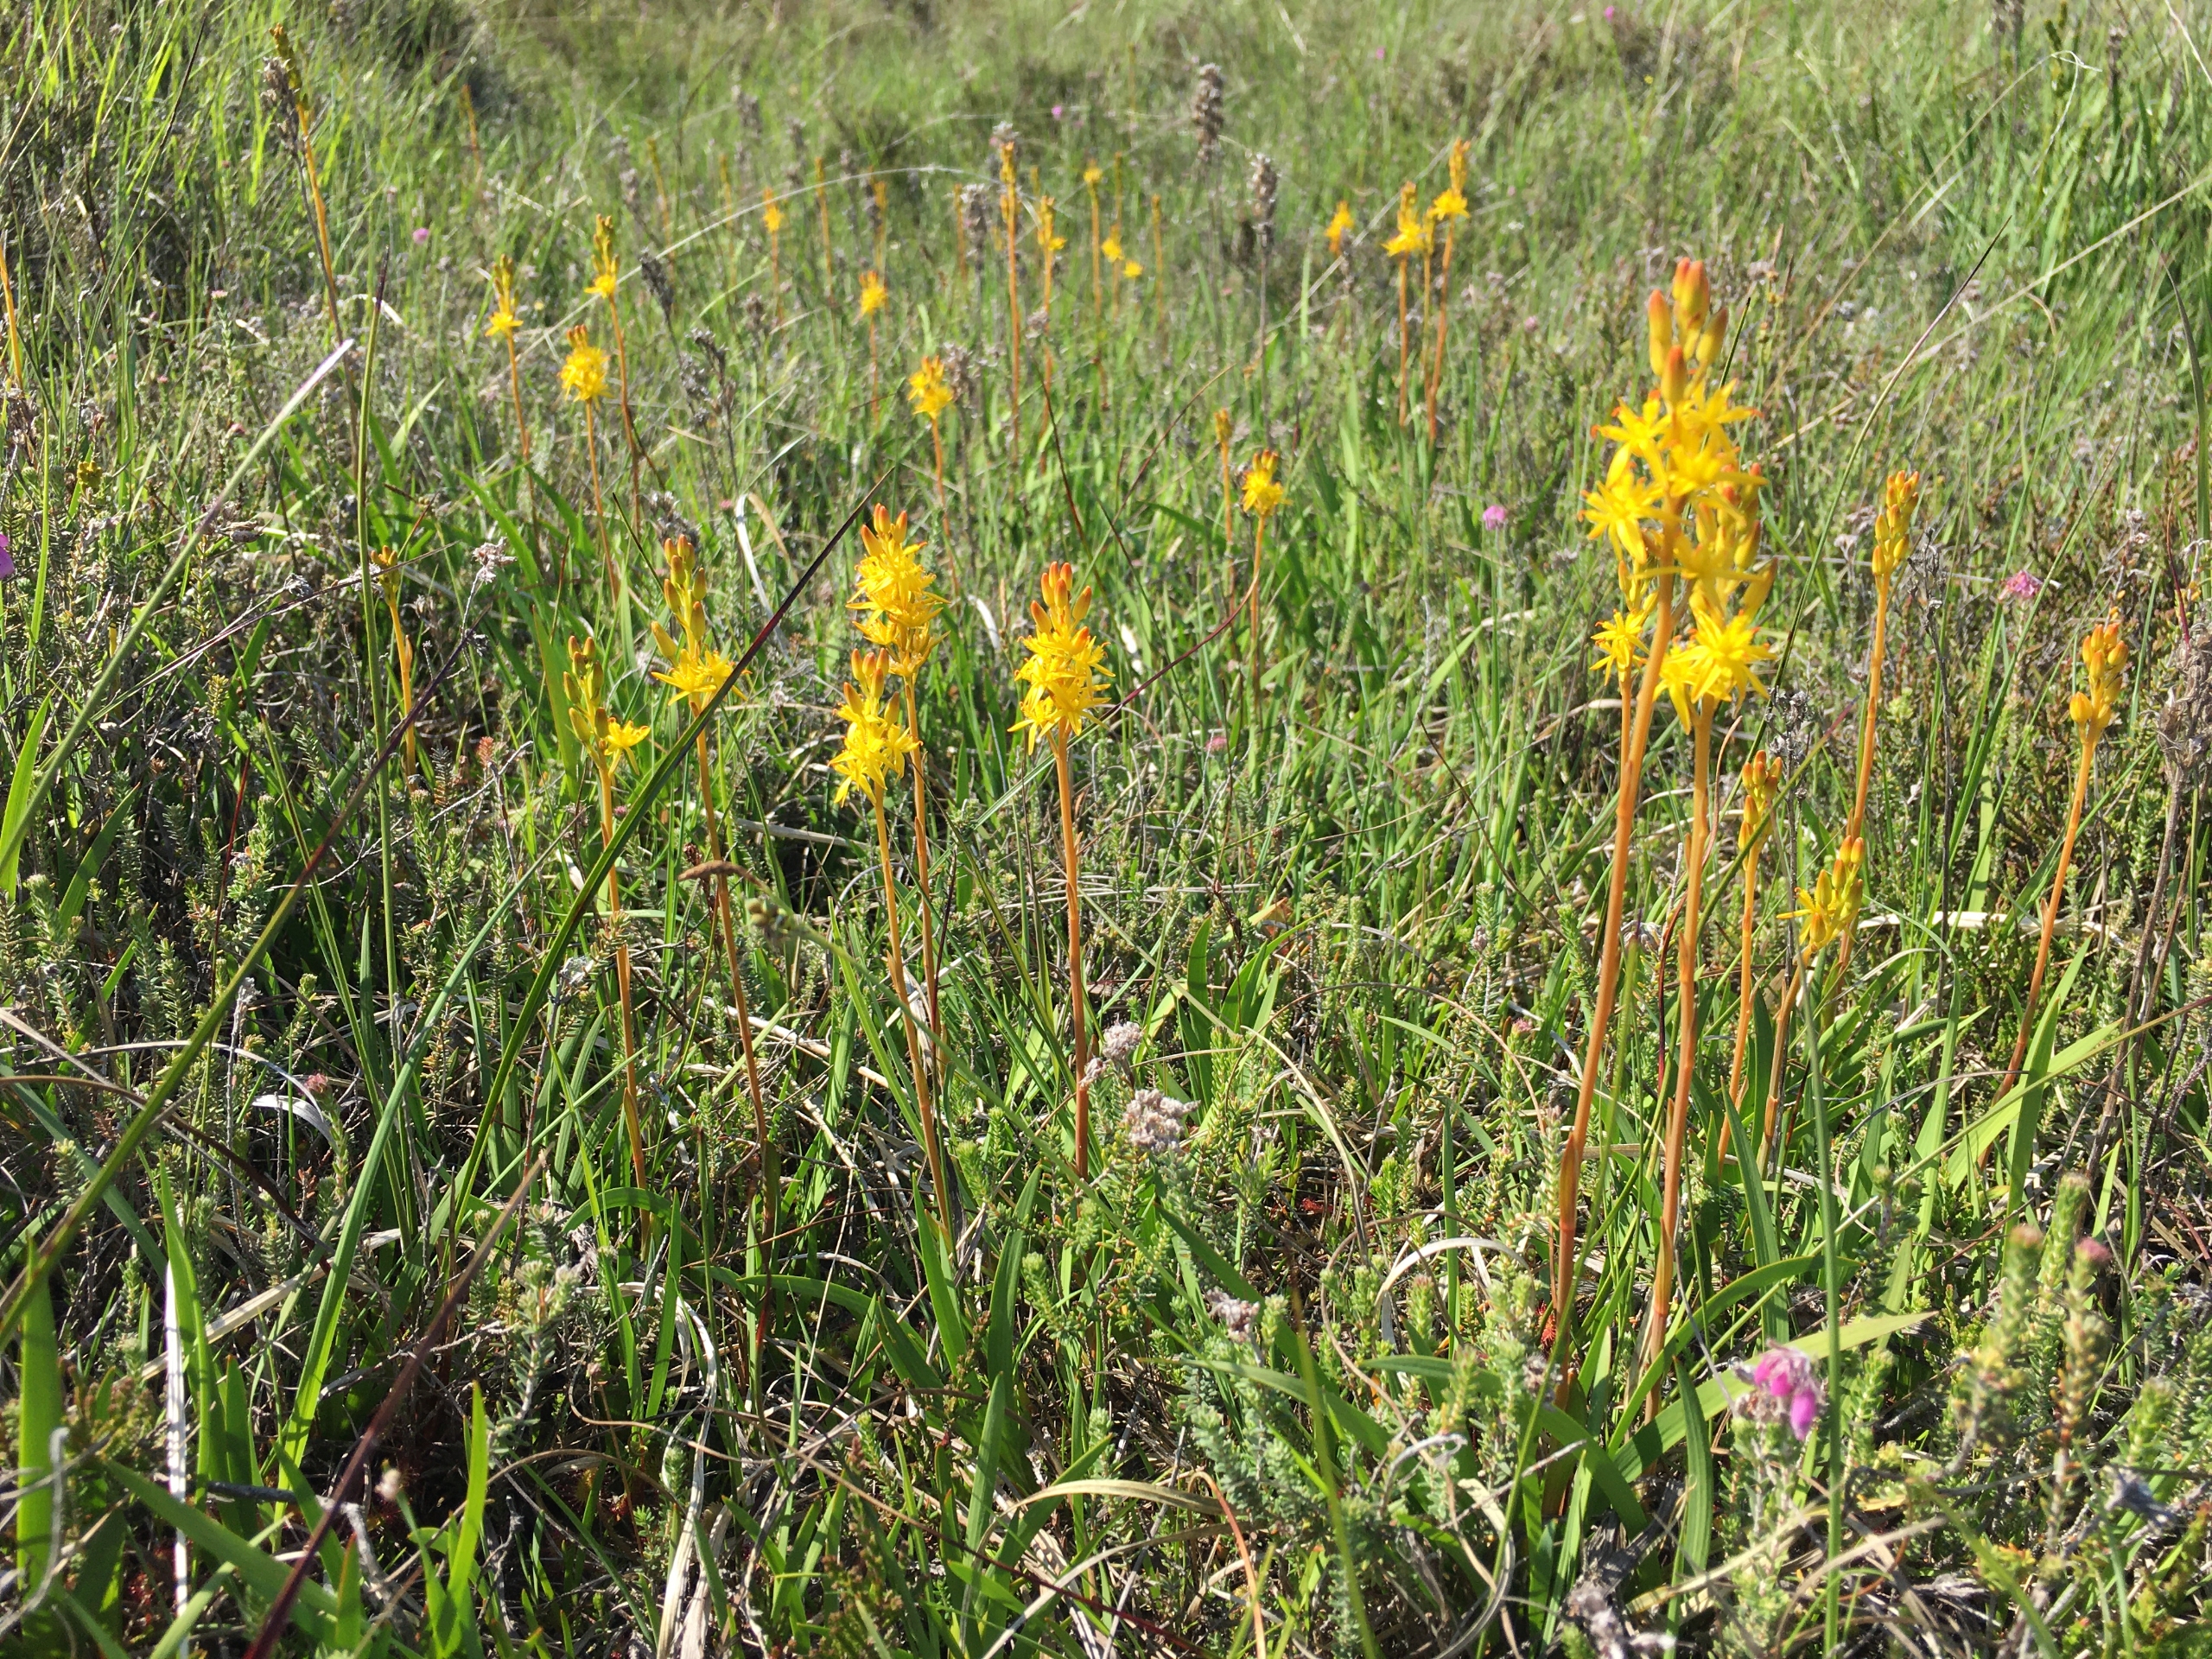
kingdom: Plantae
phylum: Tracheophyta
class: Liliopsida
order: Dioscoreales
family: Nartheciaceae
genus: Narthecium
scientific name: Narthecium ossifragum
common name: Benbræk
